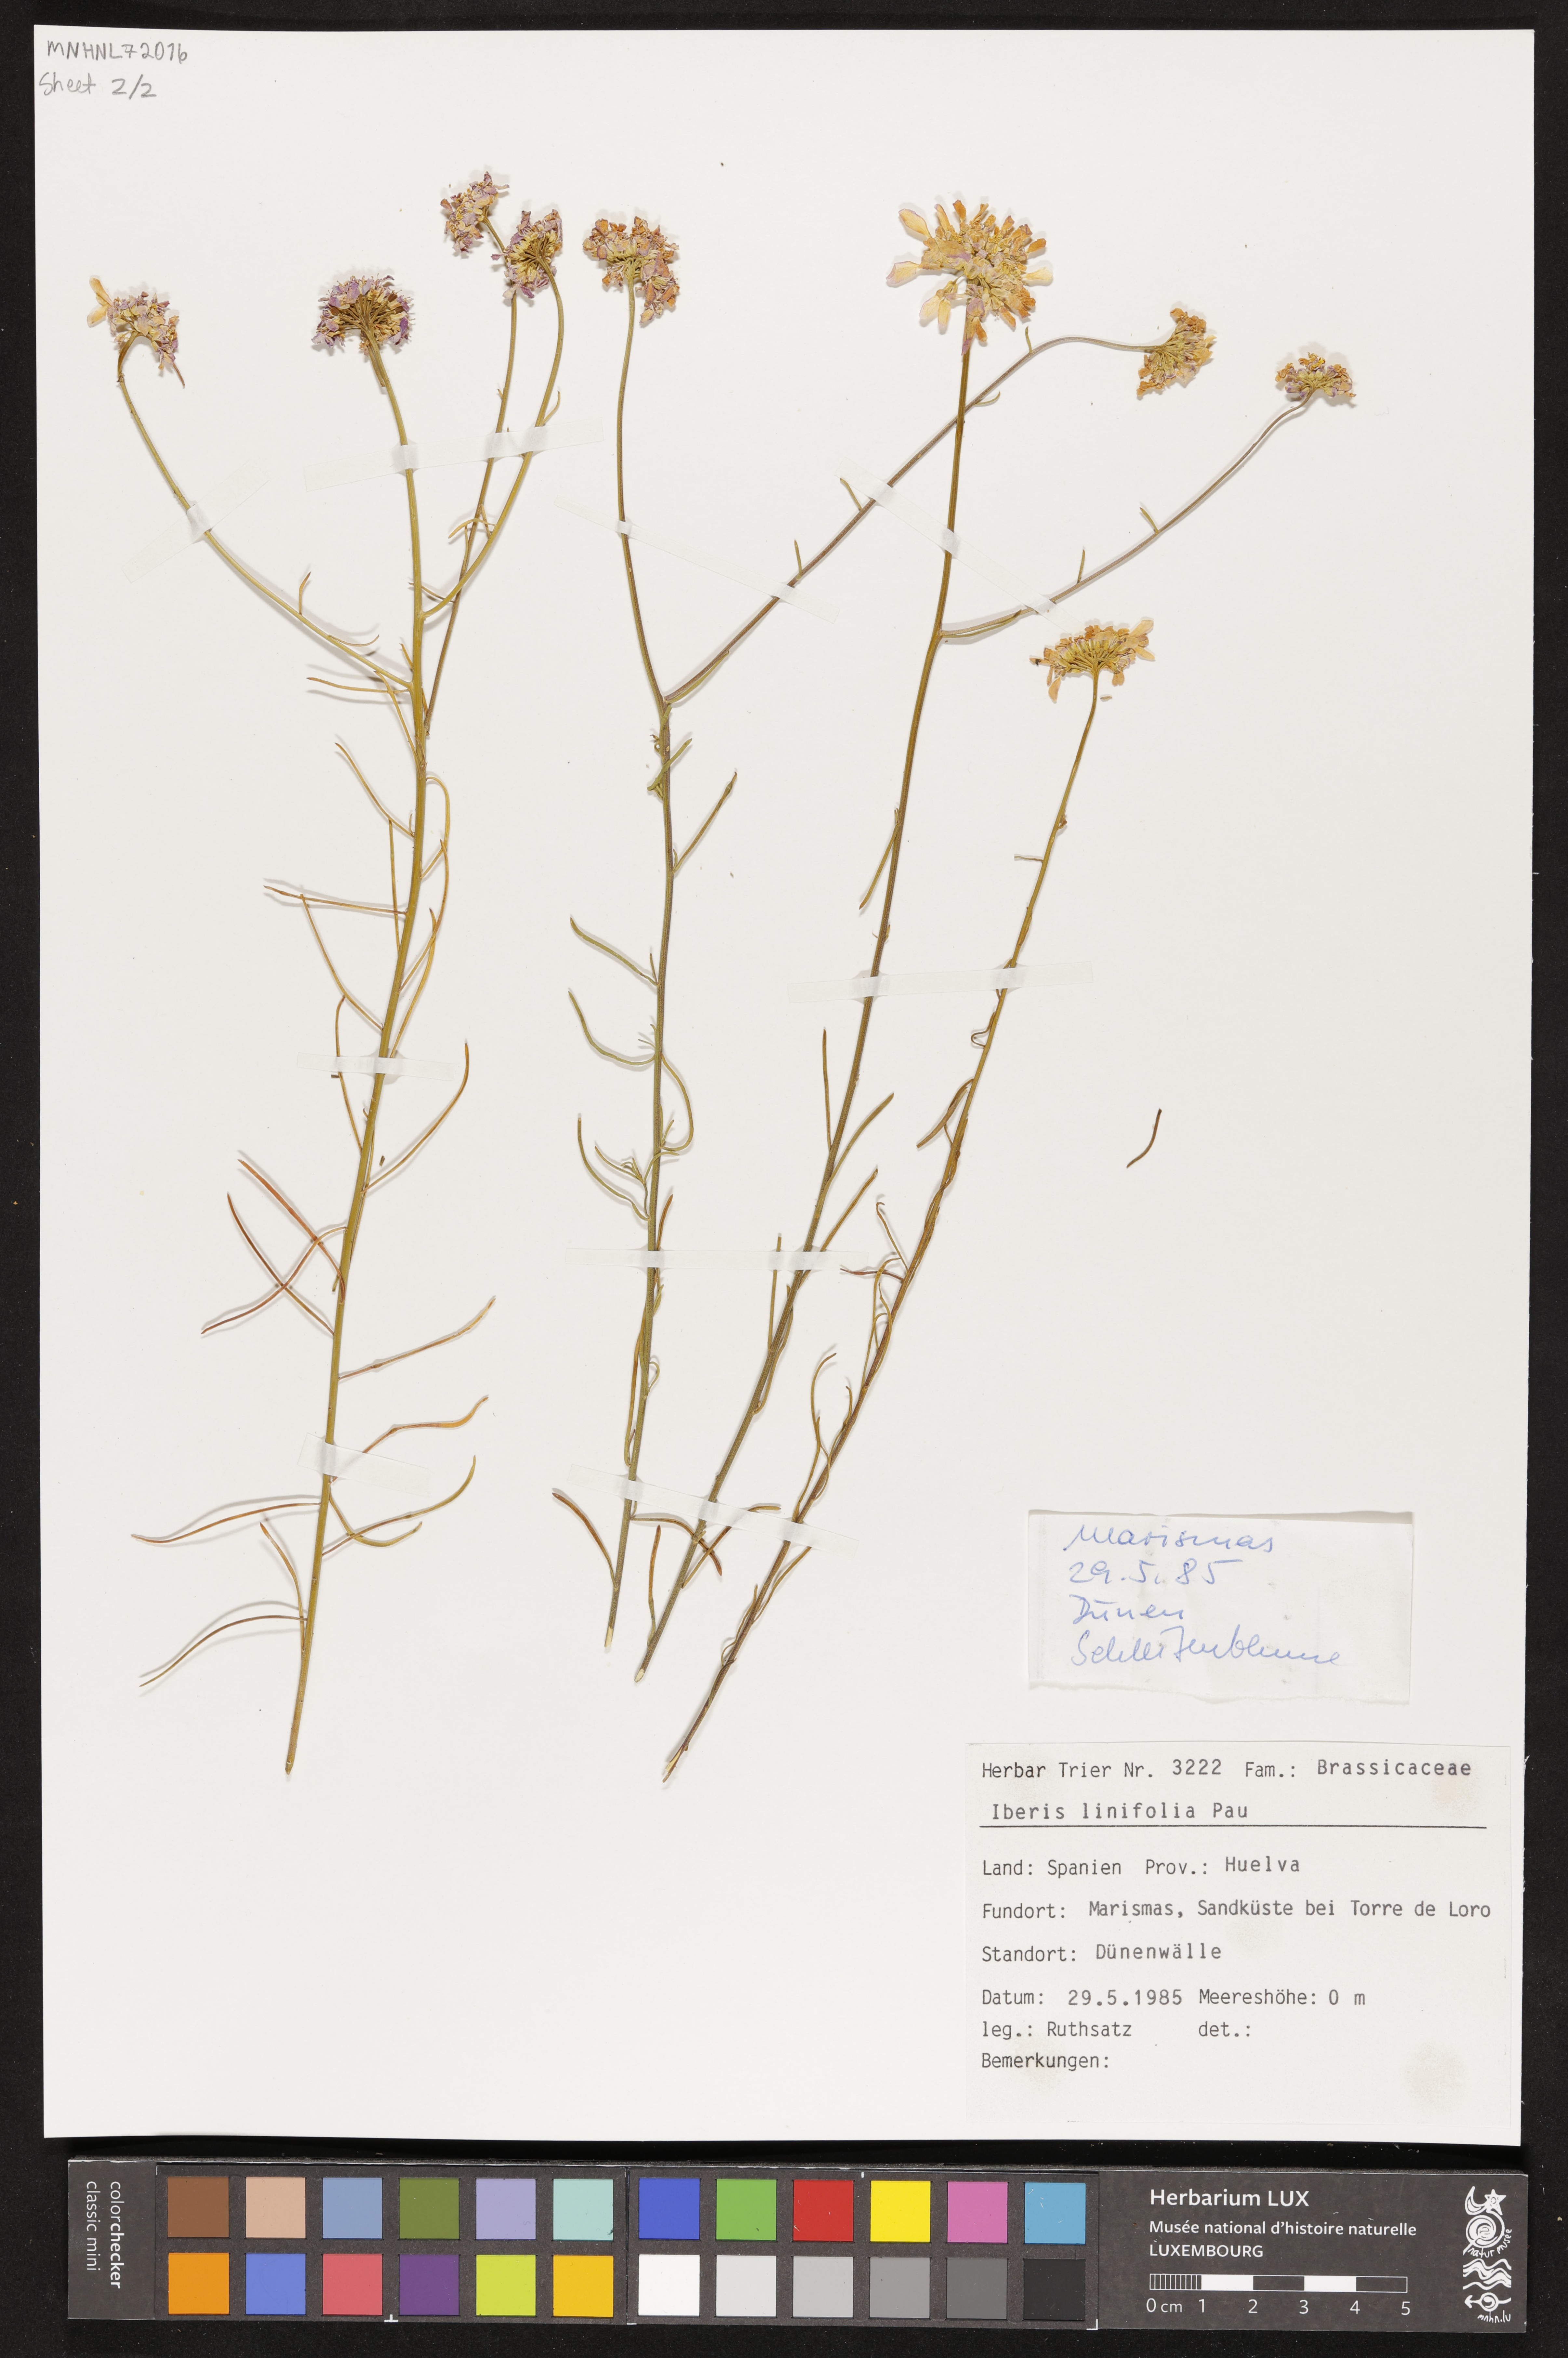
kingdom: Plantae
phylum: Tracheophyta
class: Magnoliopsida
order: Brassicales
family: Brassicaceae
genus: Iberis
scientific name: Iberis linifolia
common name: Candytuft
